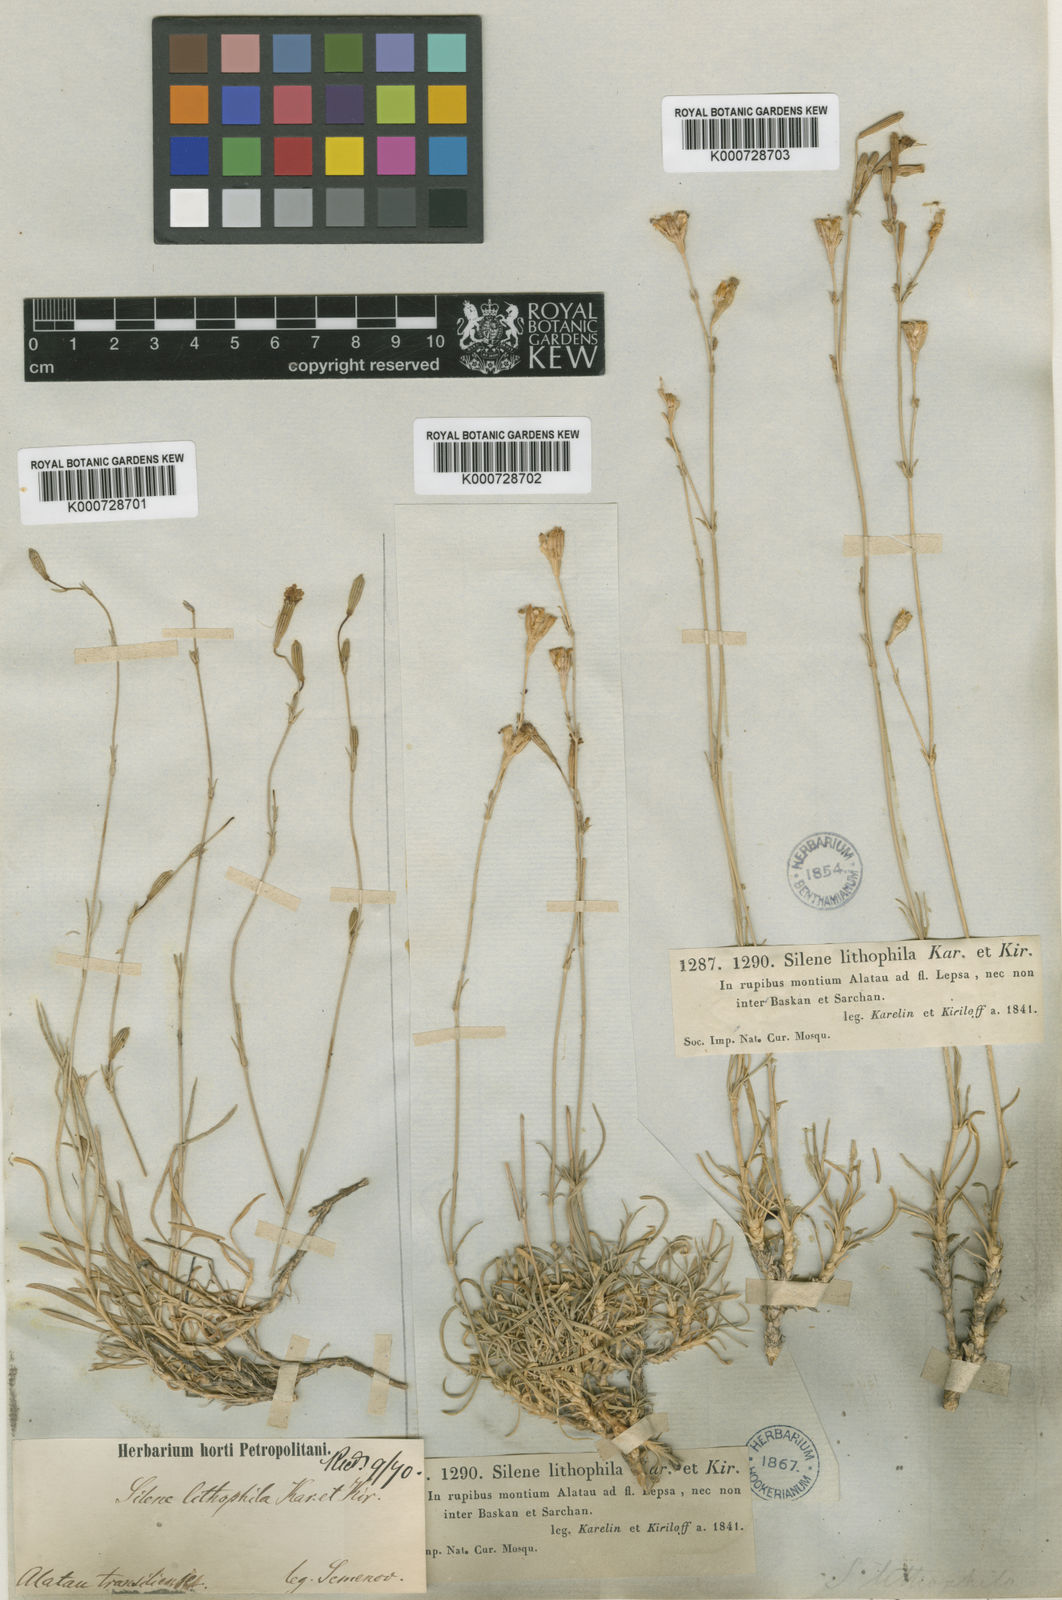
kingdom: Plantae
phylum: Tracheophyta
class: Magnoliopsida
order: Caryophyllales
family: Caryophyllaceae
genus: Silene
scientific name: Silene lithophila
